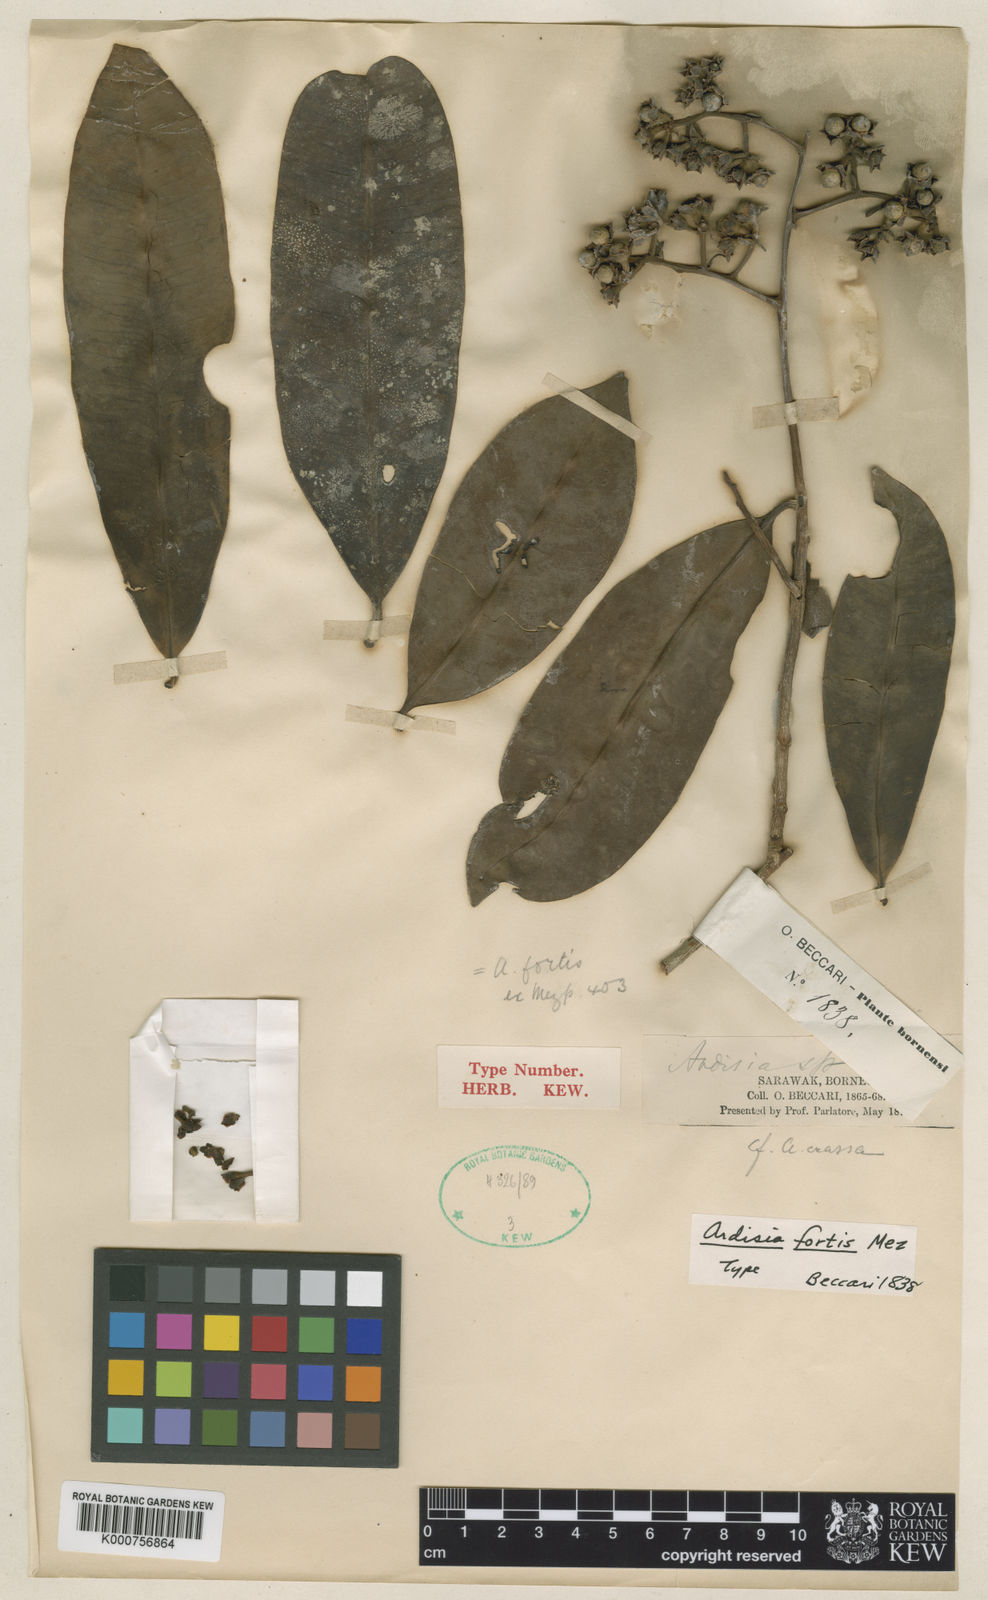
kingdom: Plantae
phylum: Tracheophyta
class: Magnoliopsida
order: Ericales
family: Primulaceae
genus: Ardisia
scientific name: Ardisia fortis
